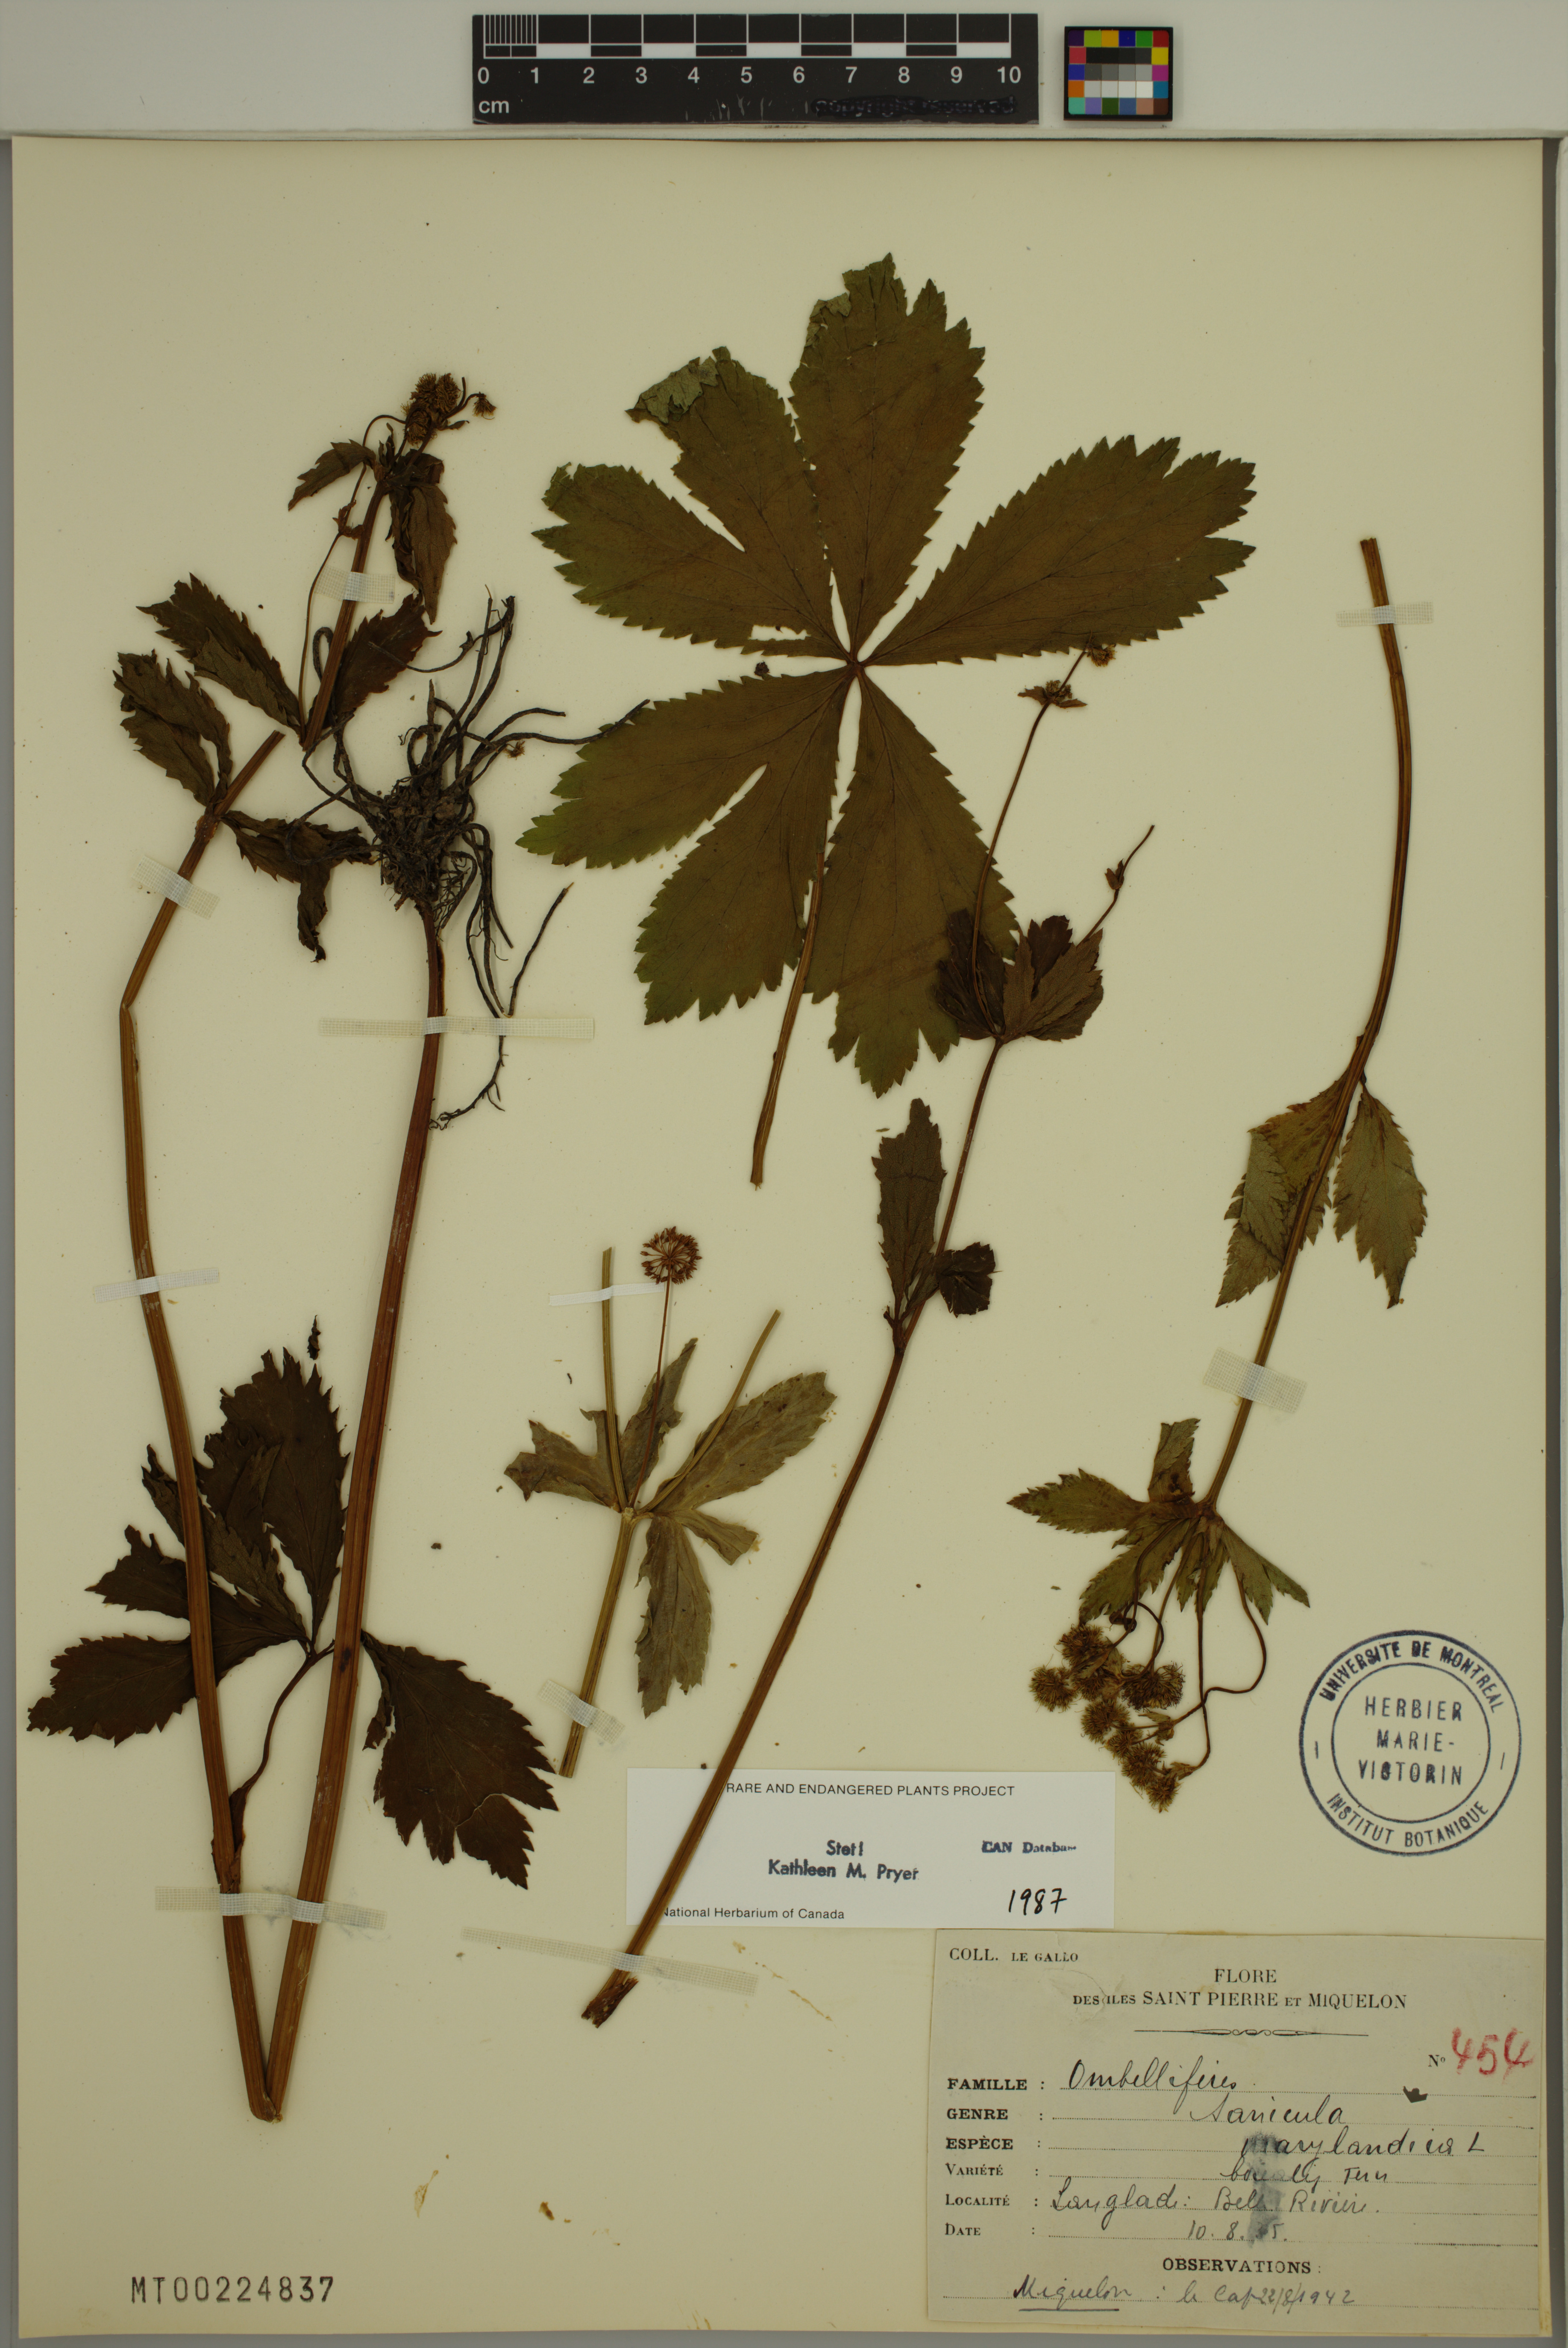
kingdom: Plantae
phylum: Tracheophyta
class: Magnoliopsida
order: Apiales
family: Apiaceae
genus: Sanicula
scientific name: Sanicula marilandica
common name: Black snakeroot
